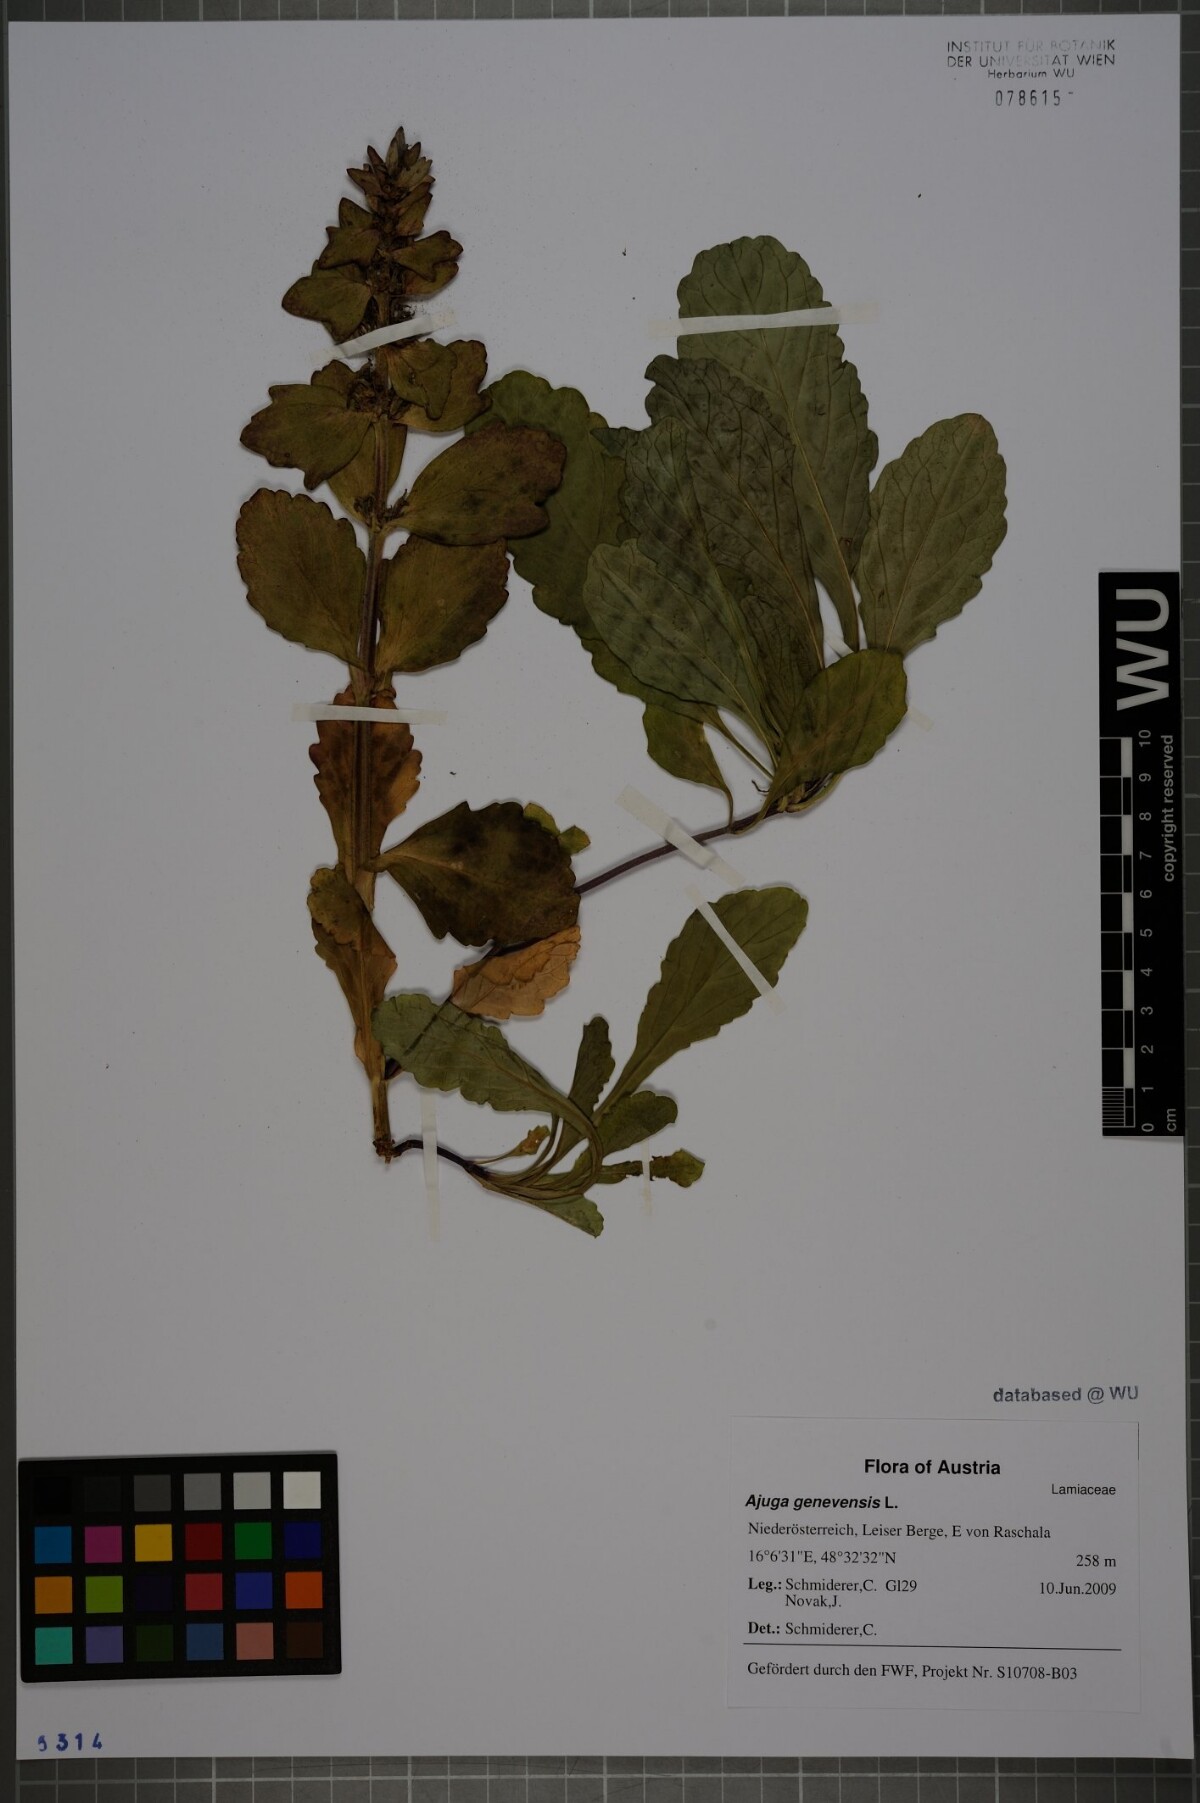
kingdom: Plantae
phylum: Tracheophyta
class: Magnoliopsida
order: Lamiales
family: Lamiaceae
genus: Ajuga
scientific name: Ajuga genevensis
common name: Blue bugle
